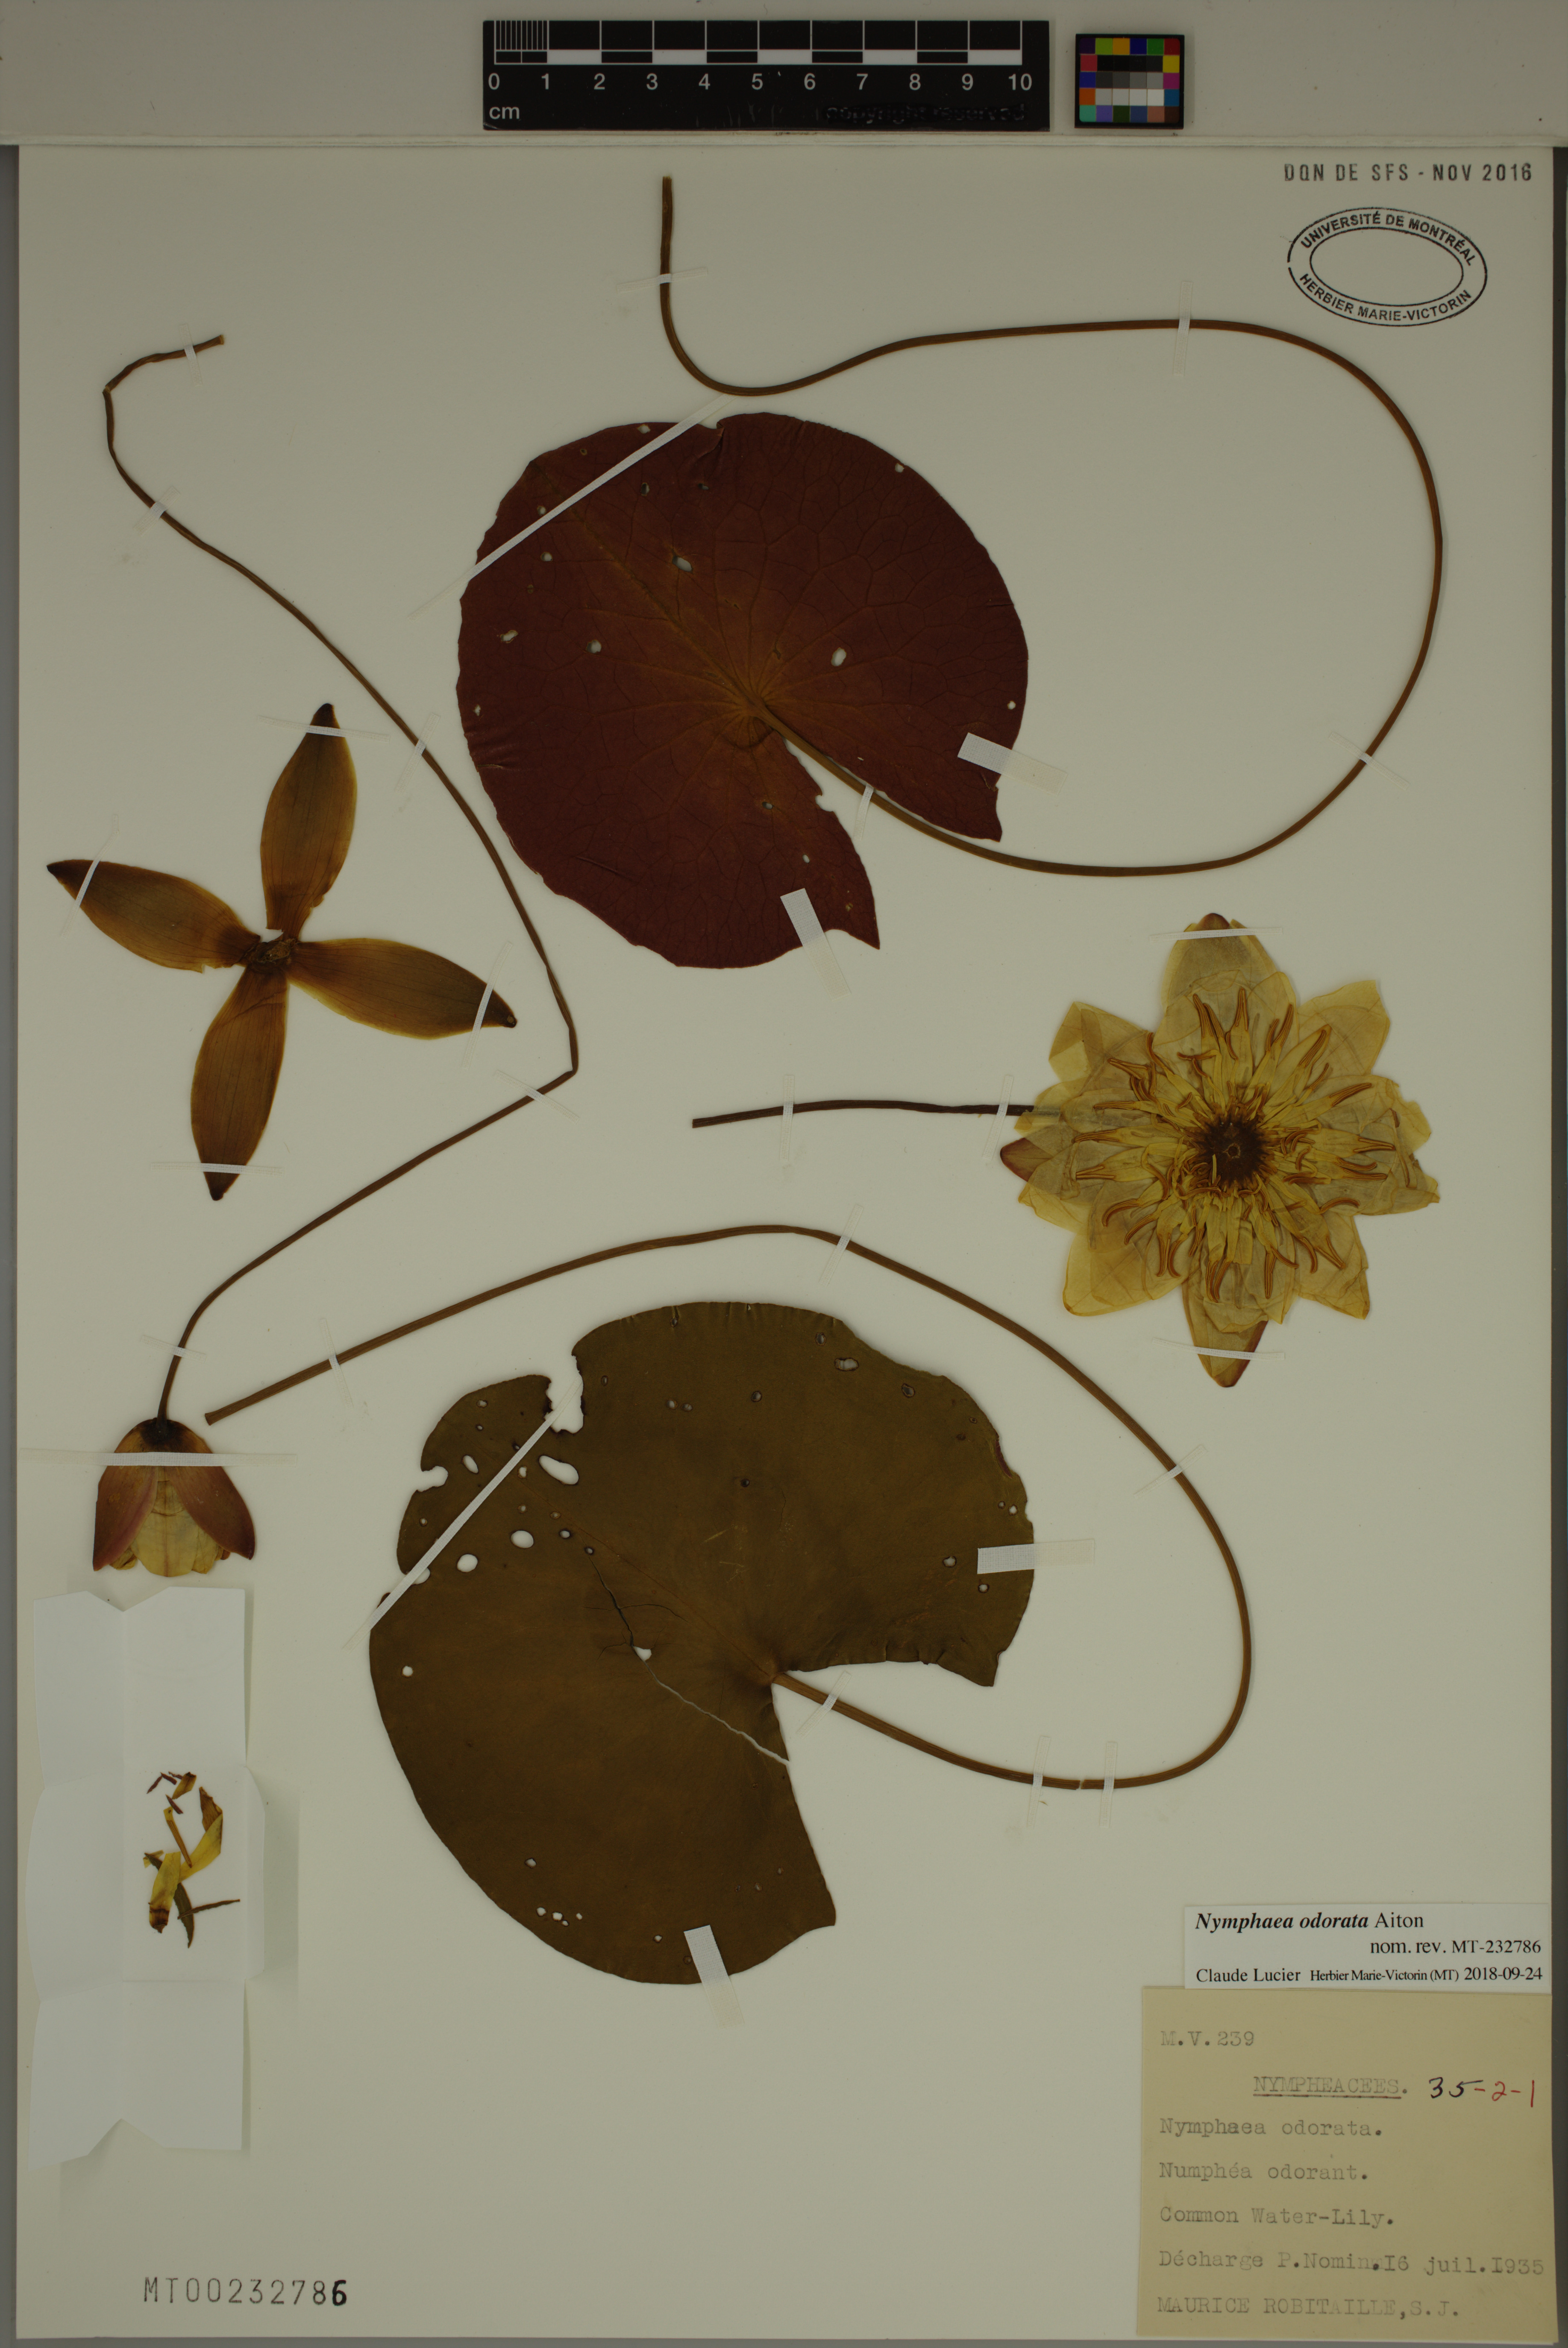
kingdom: Plantae
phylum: Tracheophyta
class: Magnoliopsida
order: Nymphaeales
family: Nymphaeaceae
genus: Nymphaea
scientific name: Nymphaea odorata
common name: Fragrant water-lily
